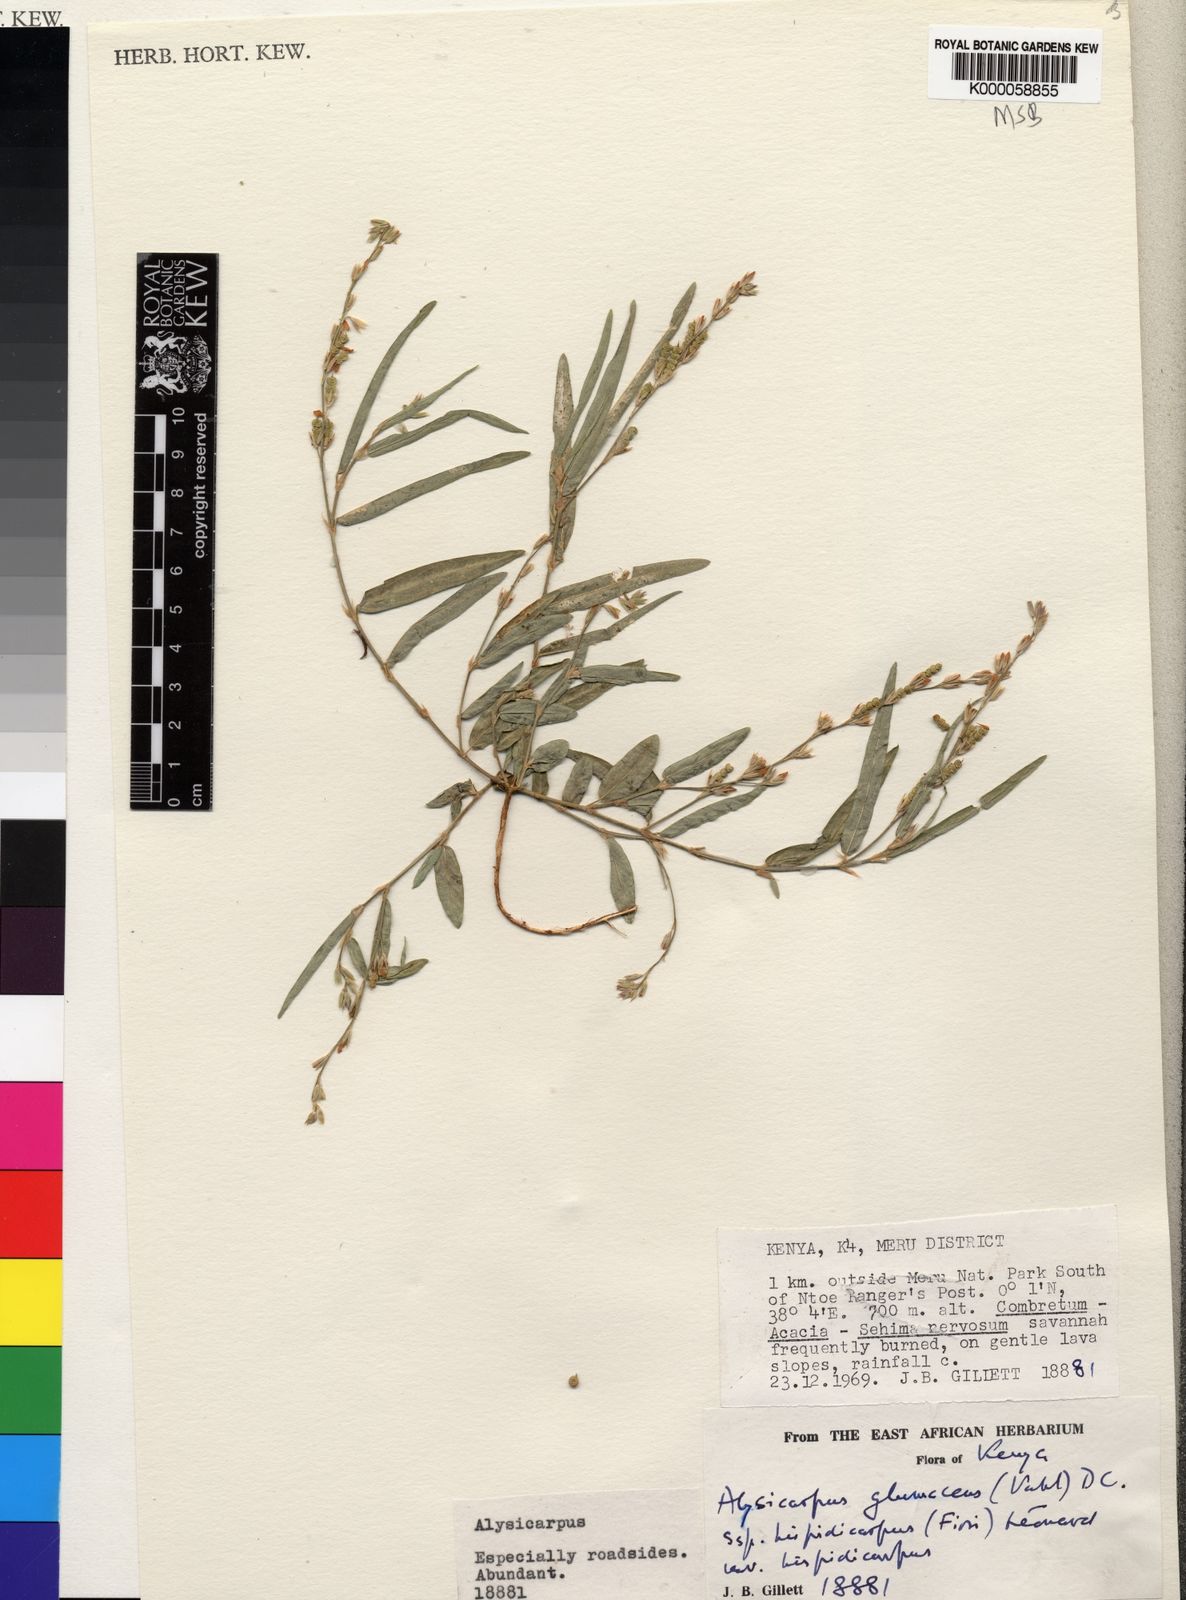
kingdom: Plantae
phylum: Tracheophyta
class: Magnoliopsida
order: Fabales
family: Fabaceae
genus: Alysicarpus
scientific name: Alysicarpus glumaceus
